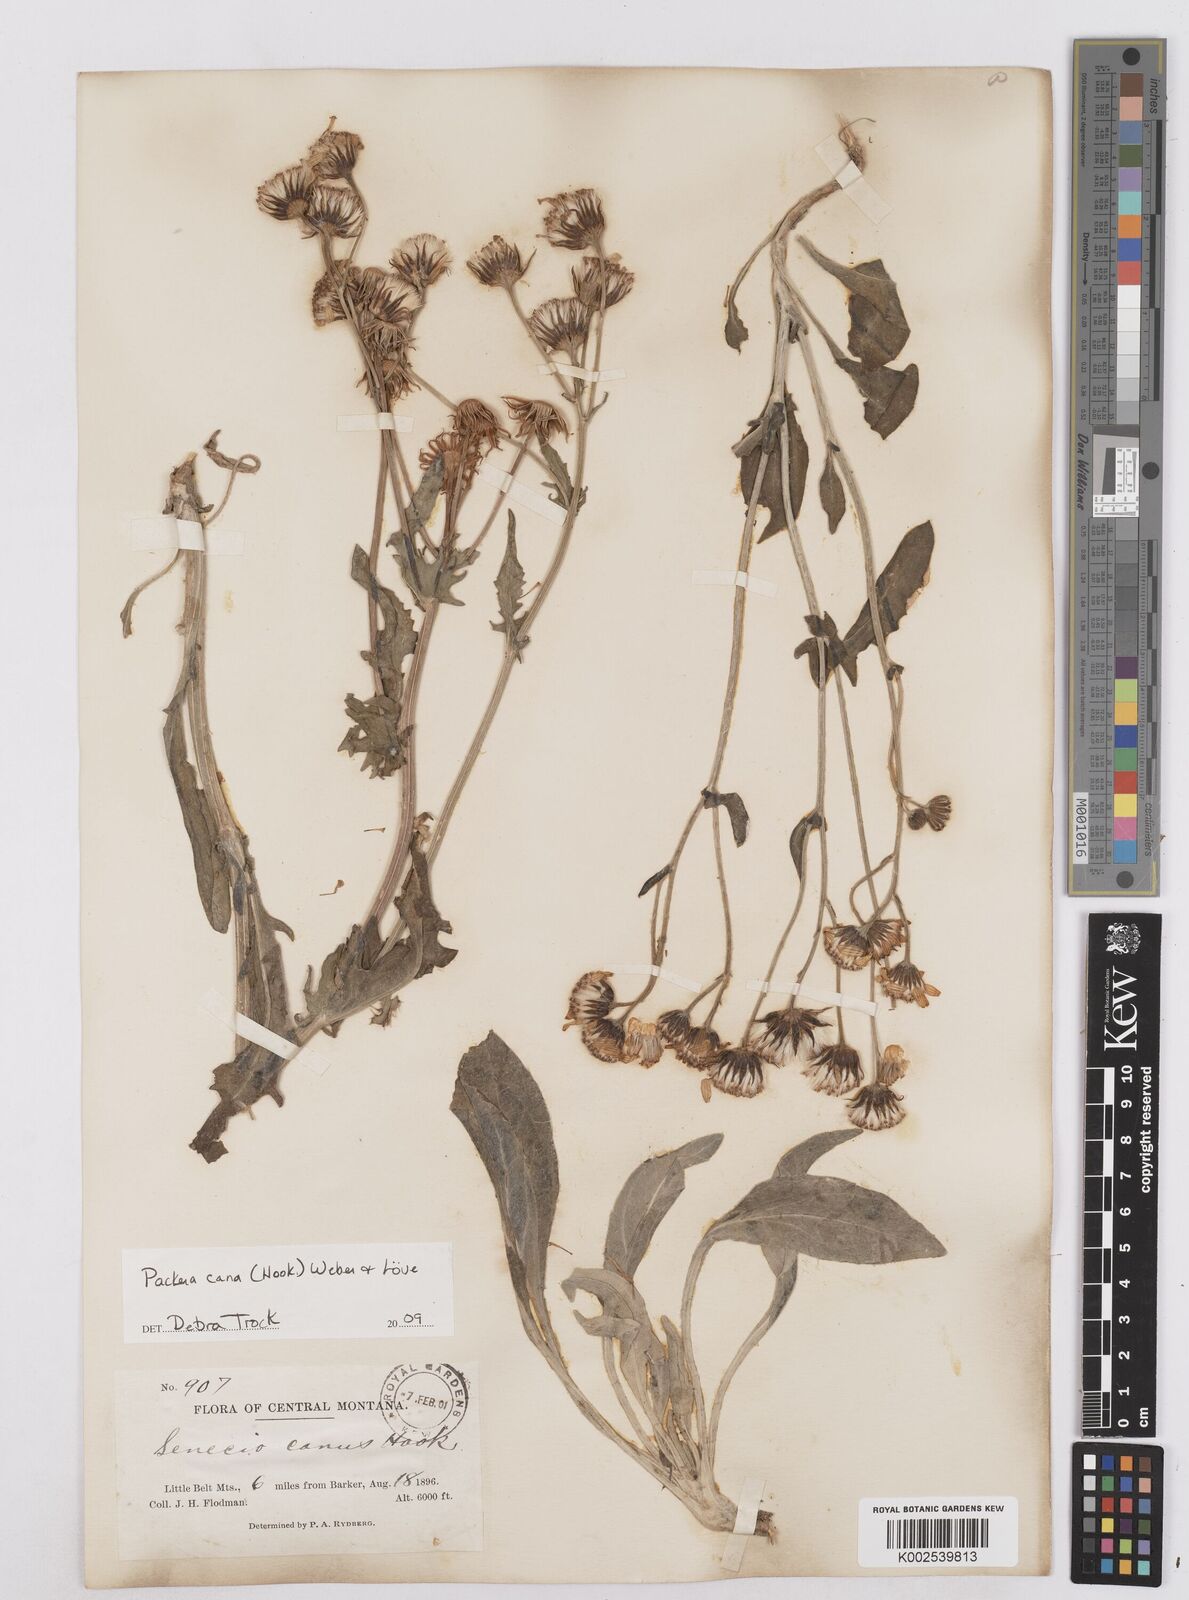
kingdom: Plantae
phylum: Tracheophyta
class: Magnoliopsida
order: Asterales
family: Asteraceae
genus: Packera
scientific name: Packera cana
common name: Woolly groundsel
